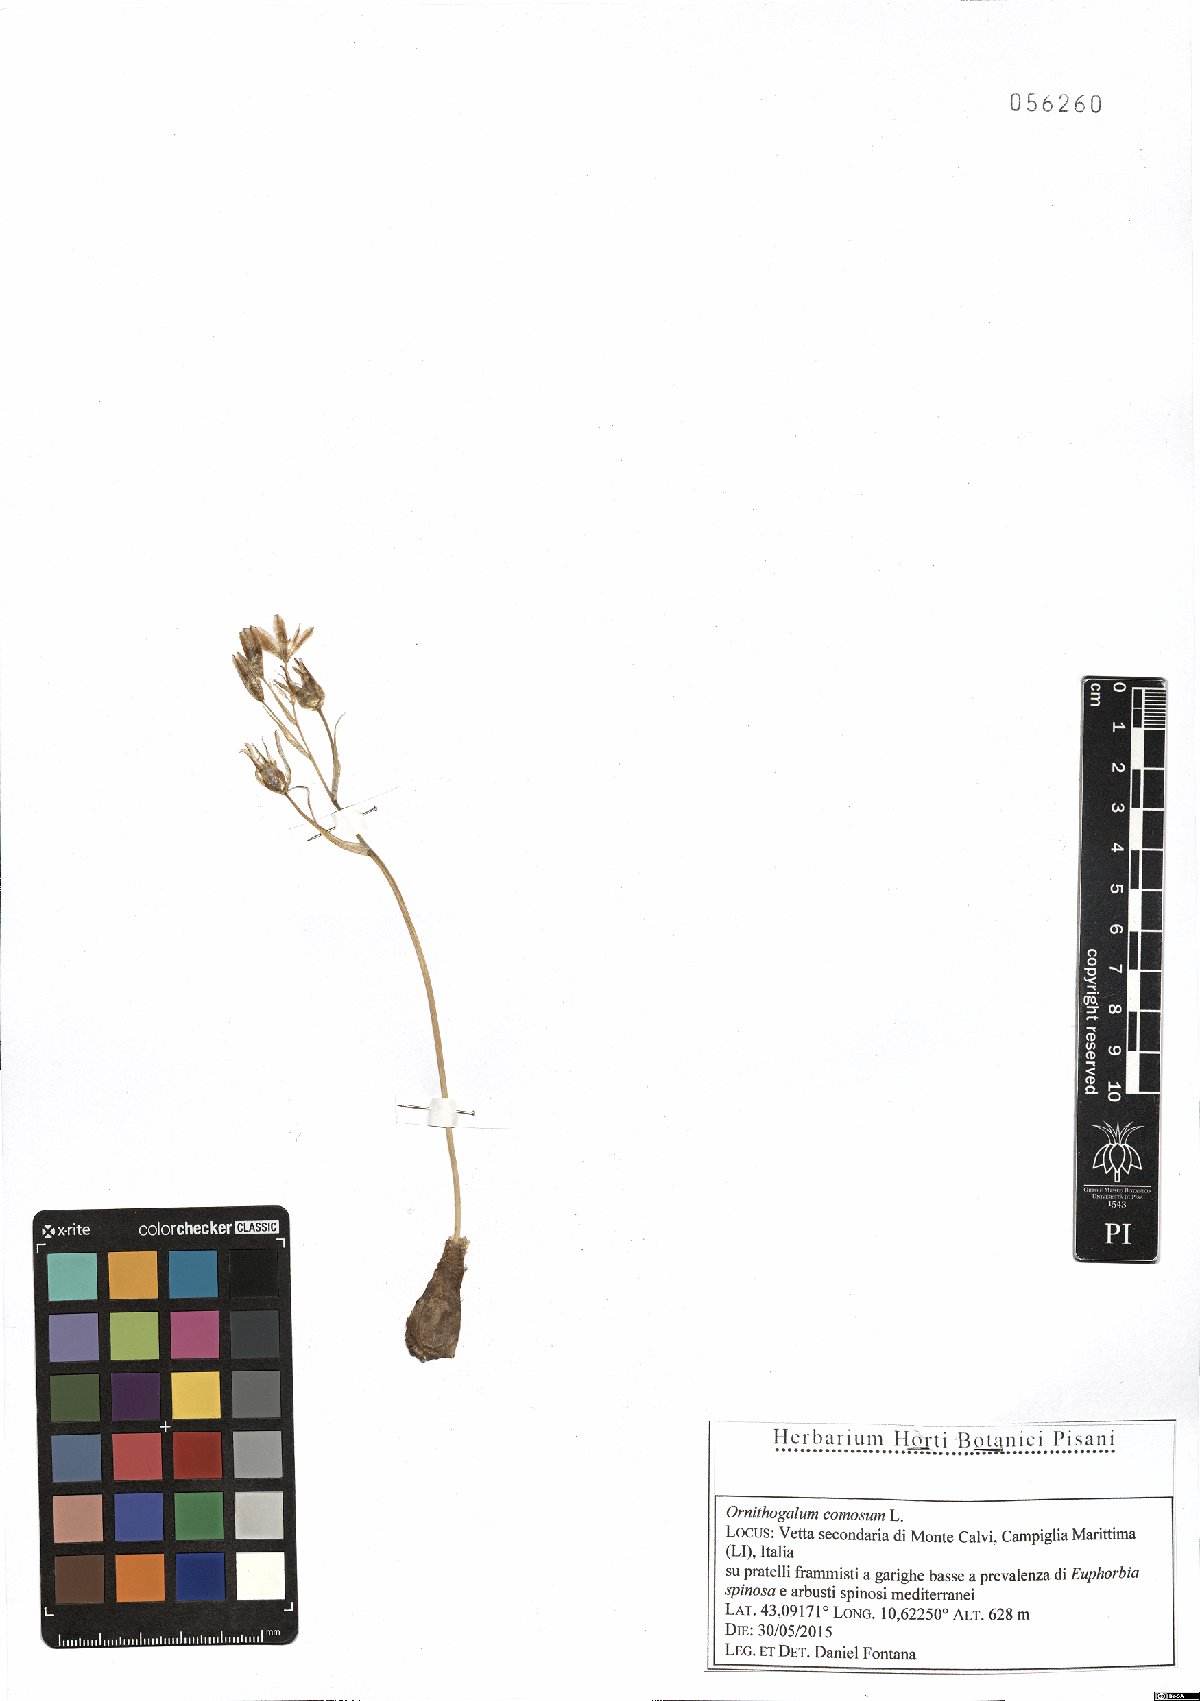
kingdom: Plantae
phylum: Tracheophyta
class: Liliopsida
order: Asparagales
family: Asparagaceae
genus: Ornithogalum
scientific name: Ornithogalum comosum
